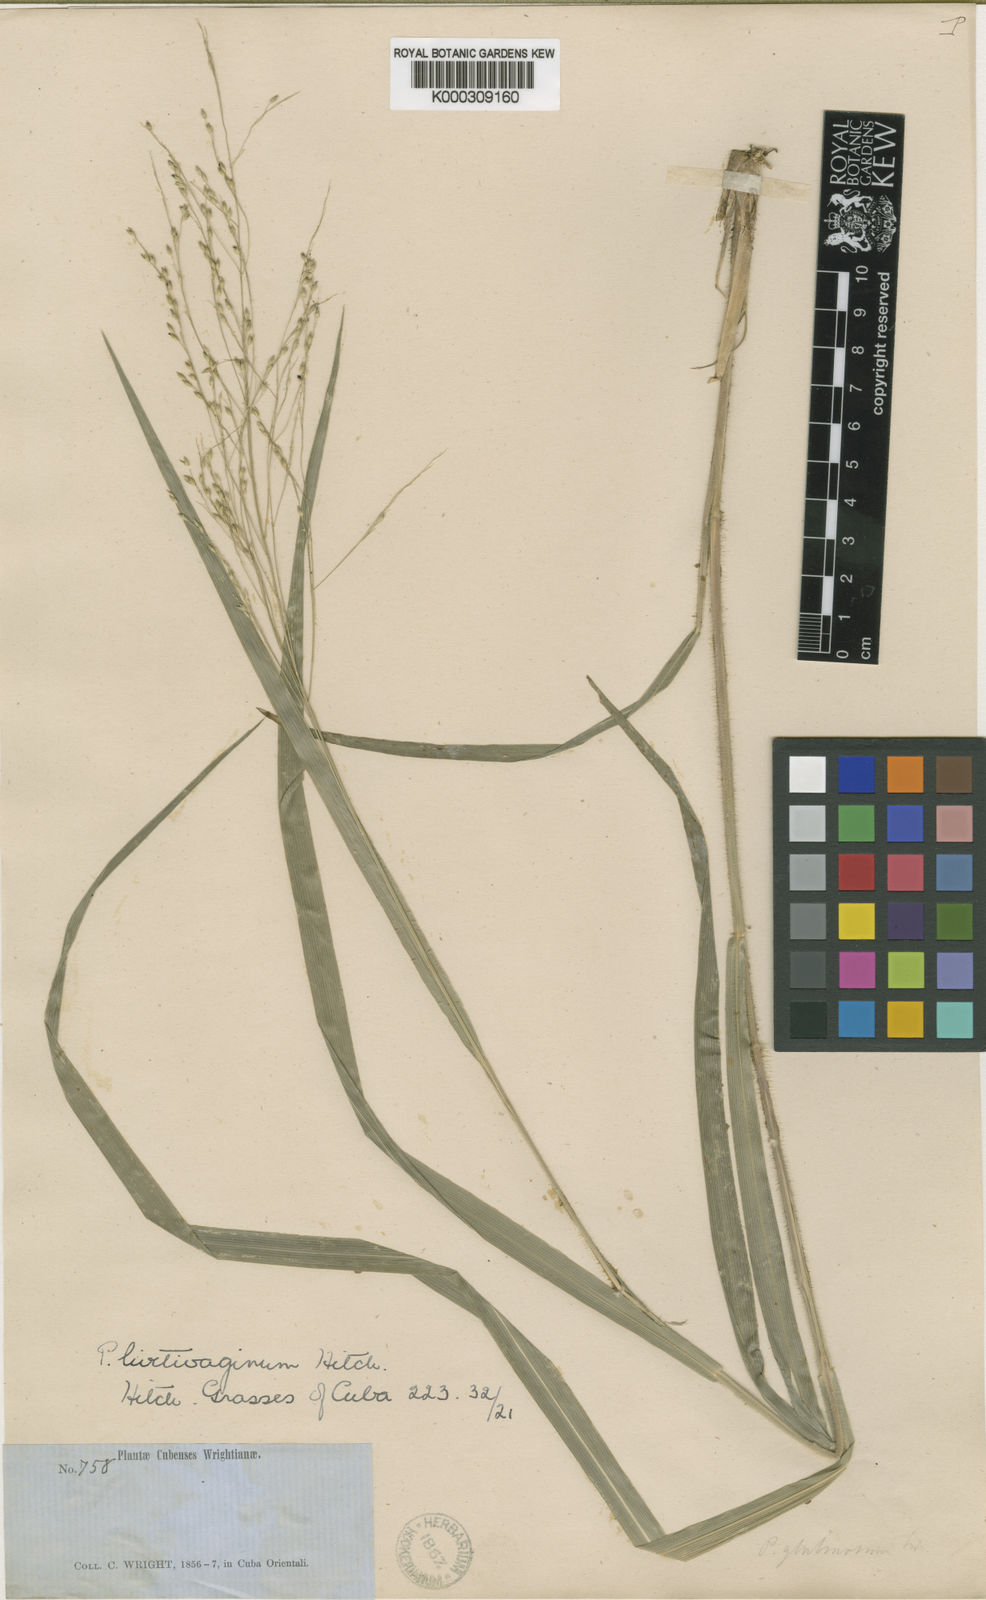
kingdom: Plantae
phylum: Tracheophyta
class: Liliopsida
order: Poales
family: Poaceae
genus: Panicum
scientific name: Panicum ghiesbreghtii
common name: Ghiesbreght's witchgrass
